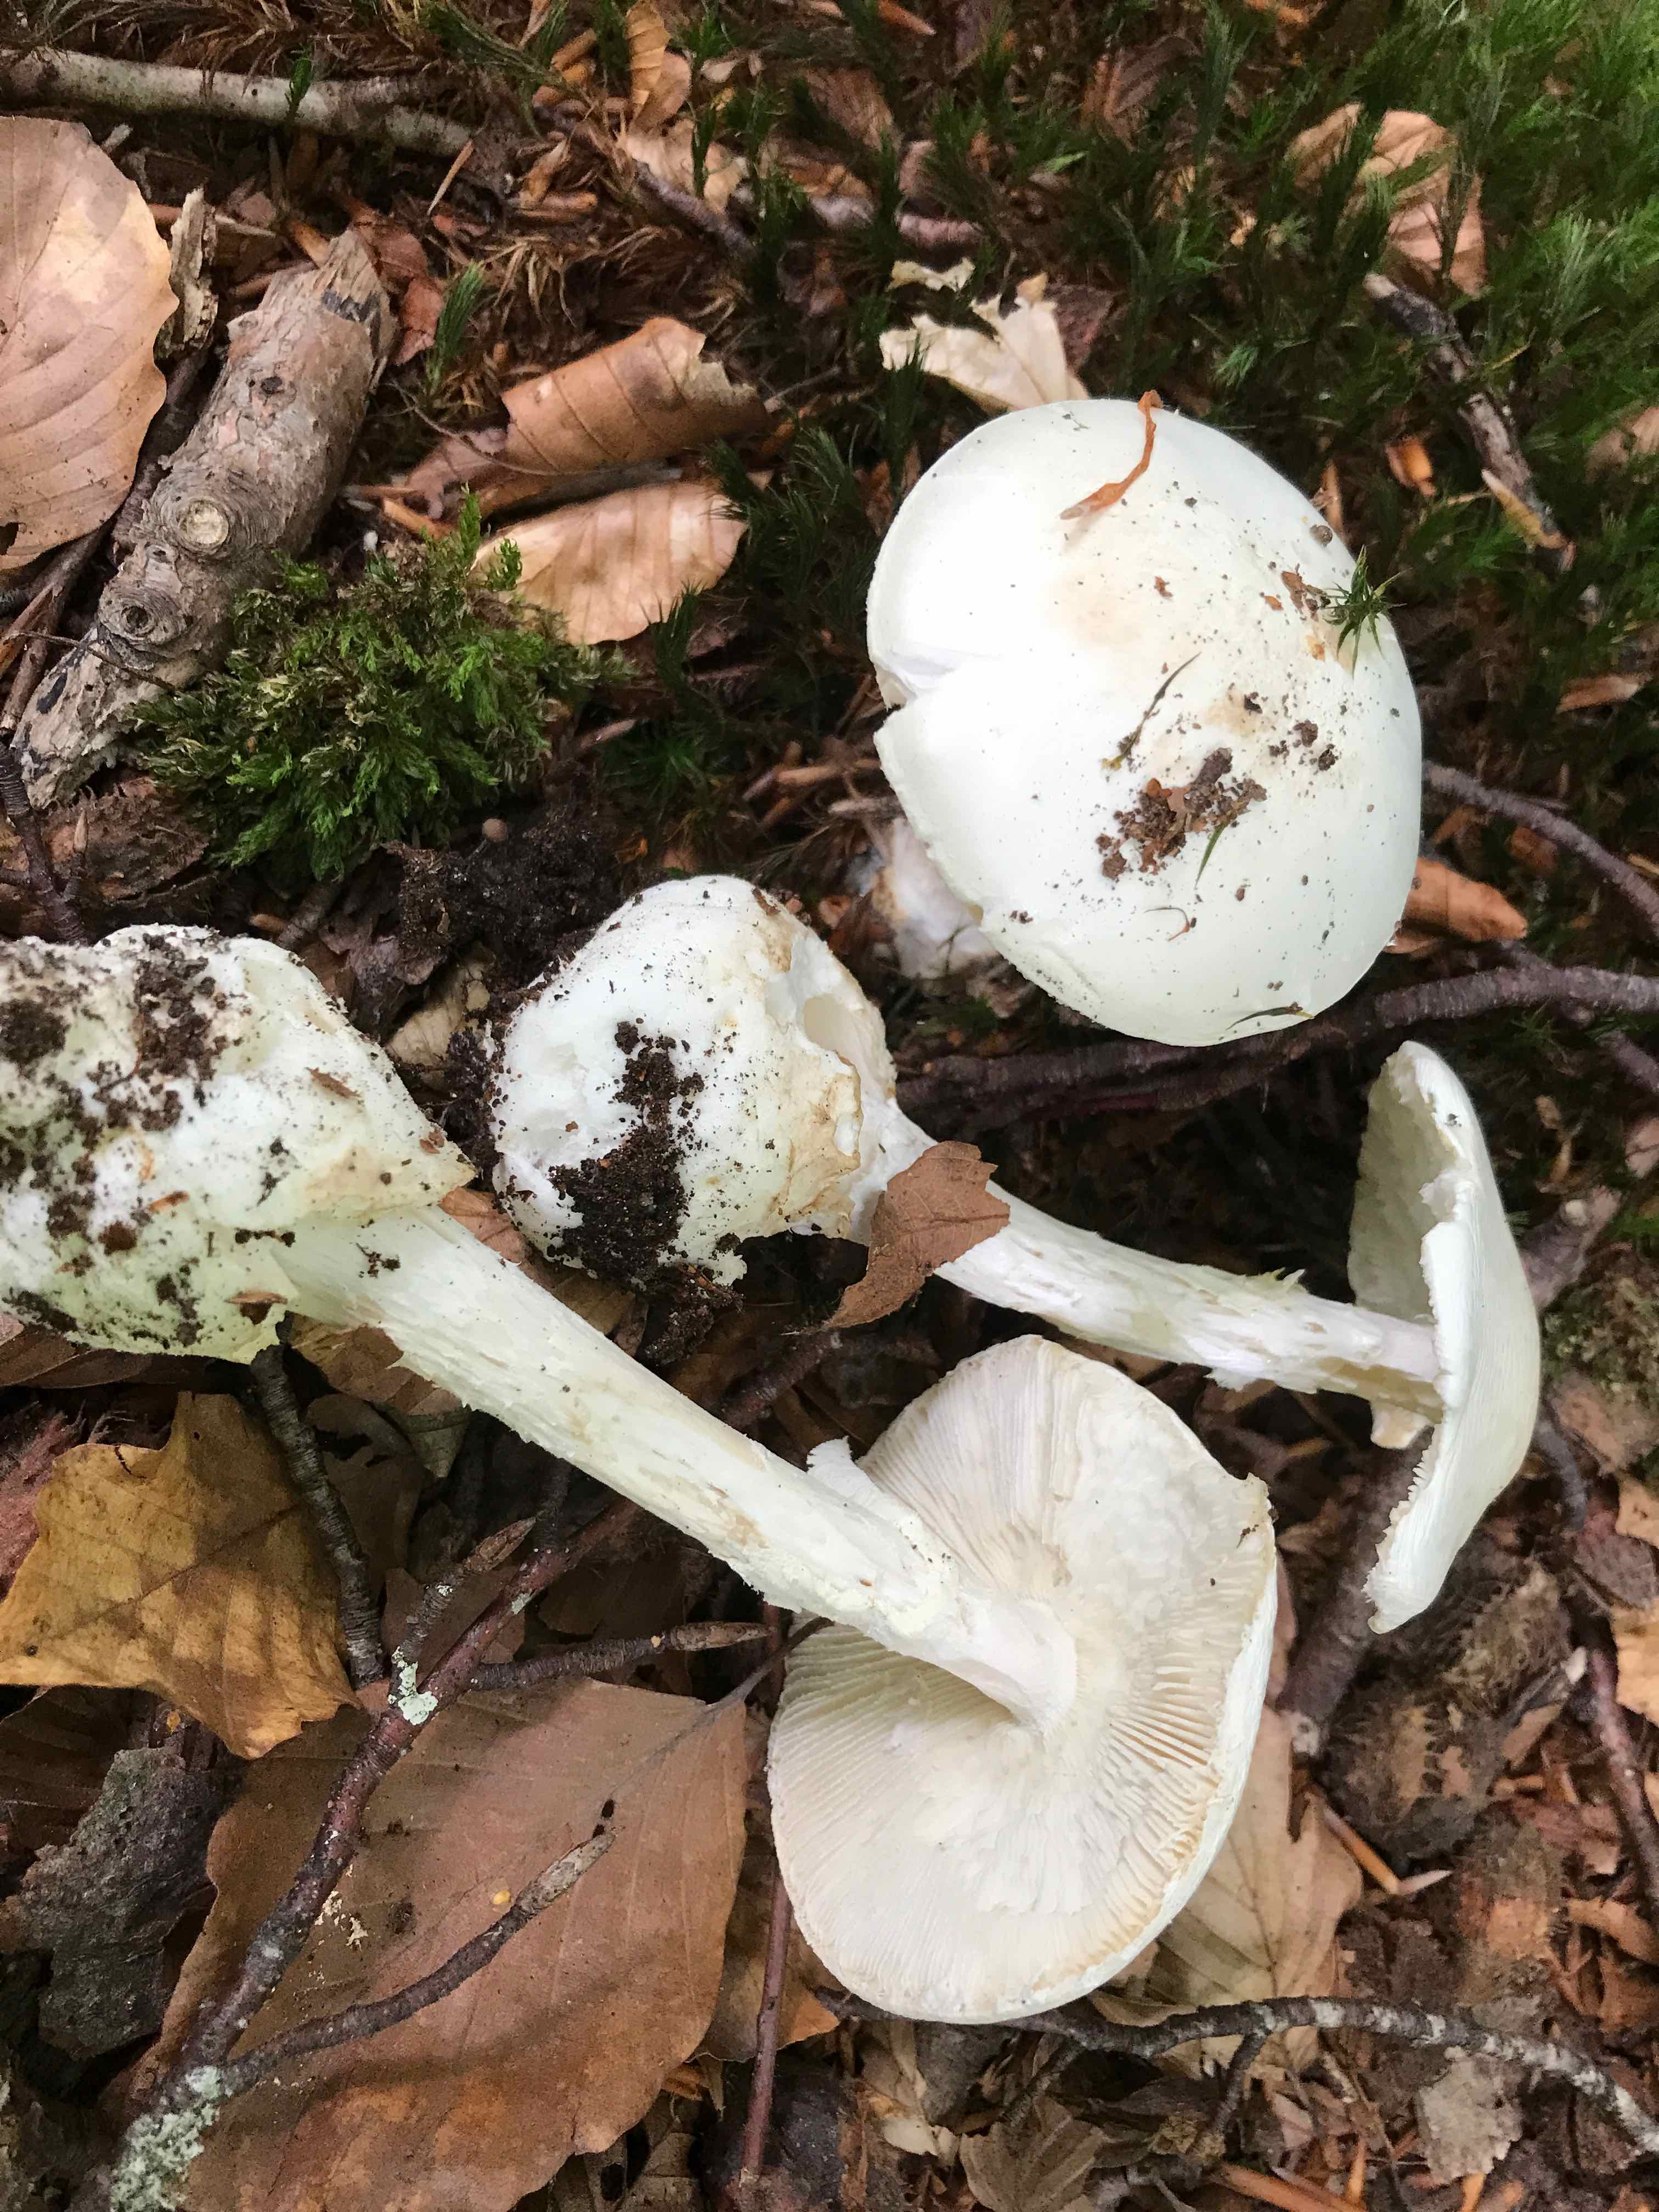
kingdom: Fungi
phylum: Basidiomycota
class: Agaricomycetes
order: Agaricales
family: Amanitaceae
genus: Amanita
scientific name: Amanita virosa
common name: snehvid fluesvamp
